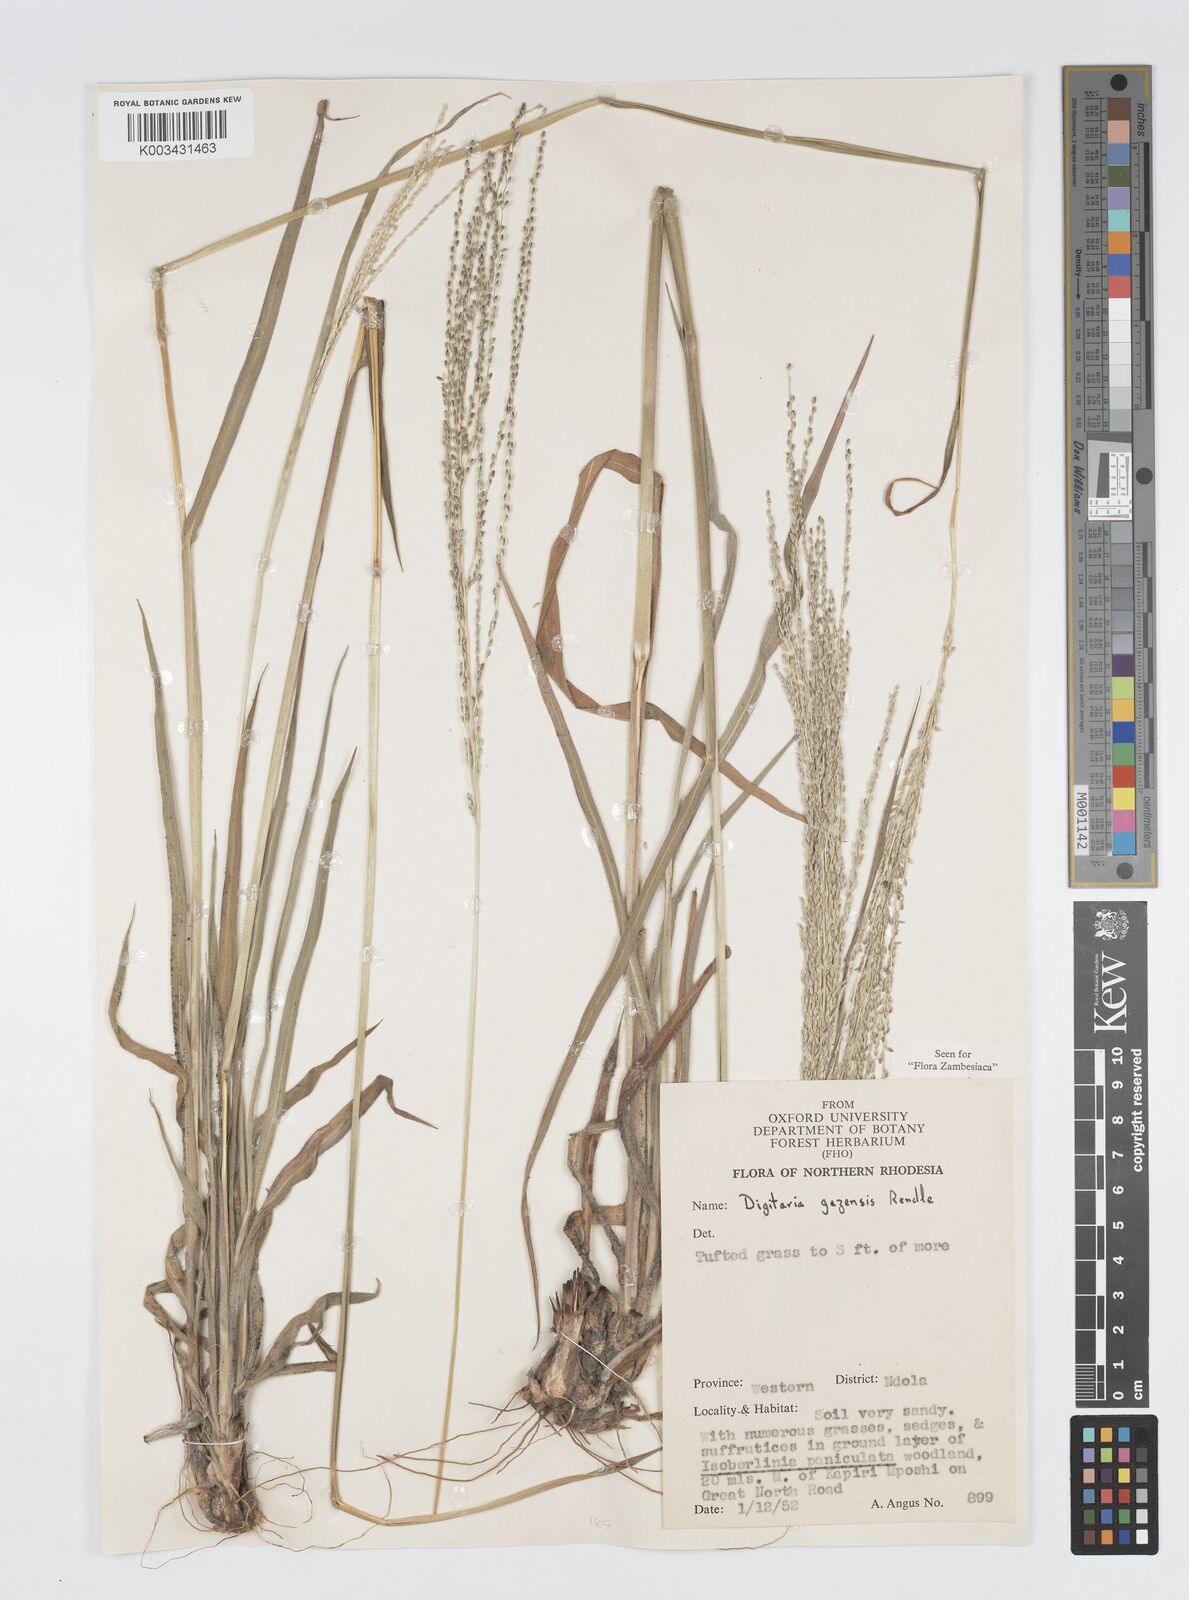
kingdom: Plantae
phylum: Tracheophyta
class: Liliopsida
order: Poales
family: Poaceae
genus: Digitaria
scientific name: Digitaria gazensis
